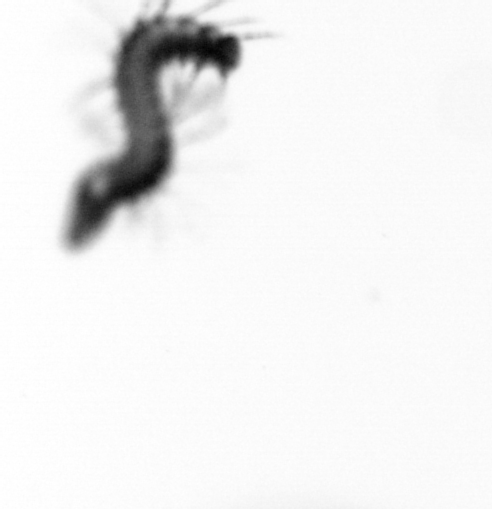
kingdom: Animalia
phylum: Annelida
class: Polychaeta
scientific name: Polychaeta
